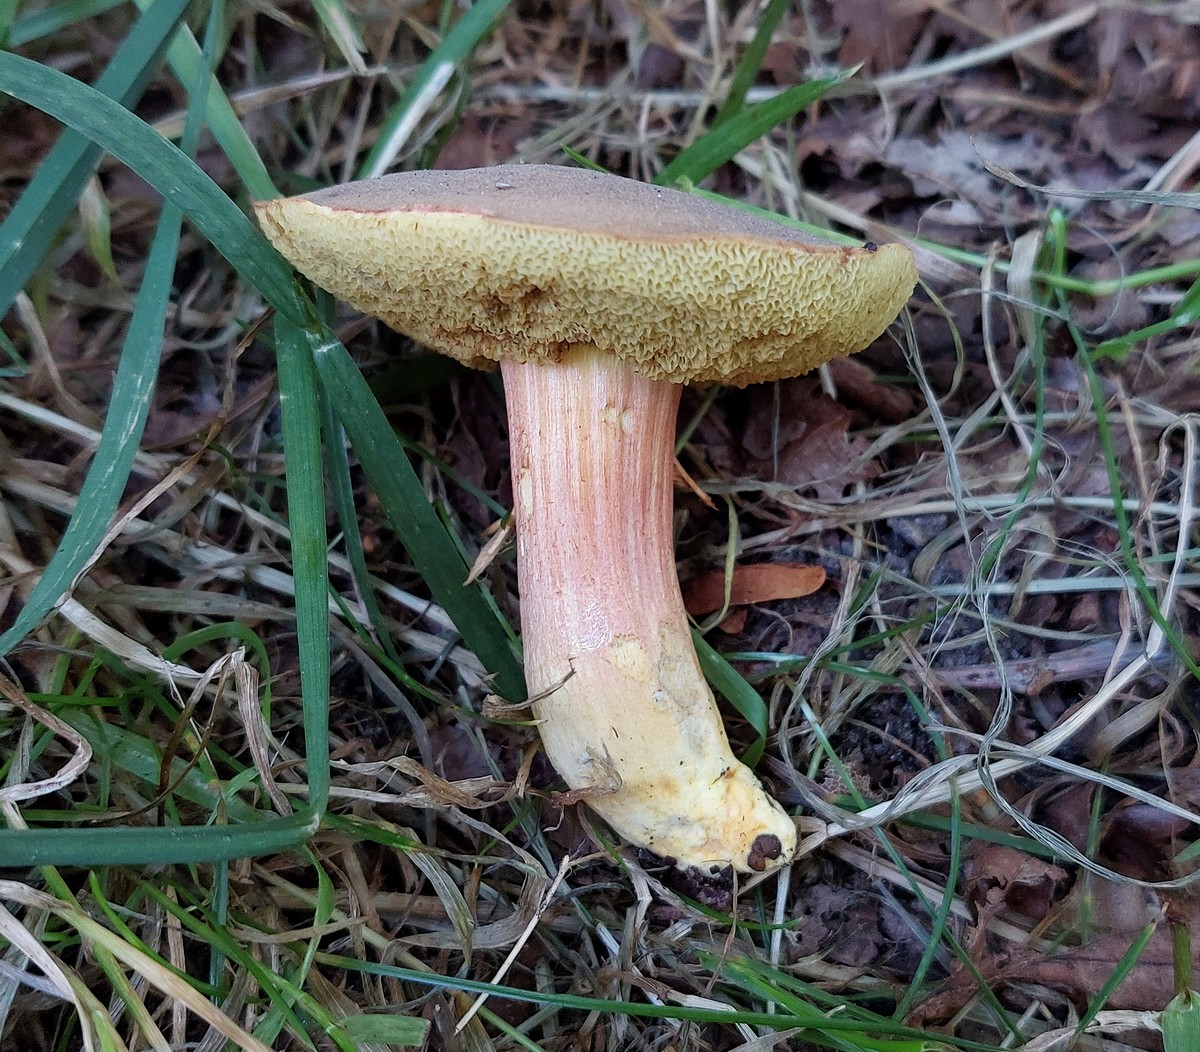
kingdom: Fungi
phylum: Basidiomycota
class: Agaricomycetes
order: Boletales
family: Boletaceae
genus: Hortiboletus
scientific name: Hortiboletus engelii
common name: fersken-rørhat
